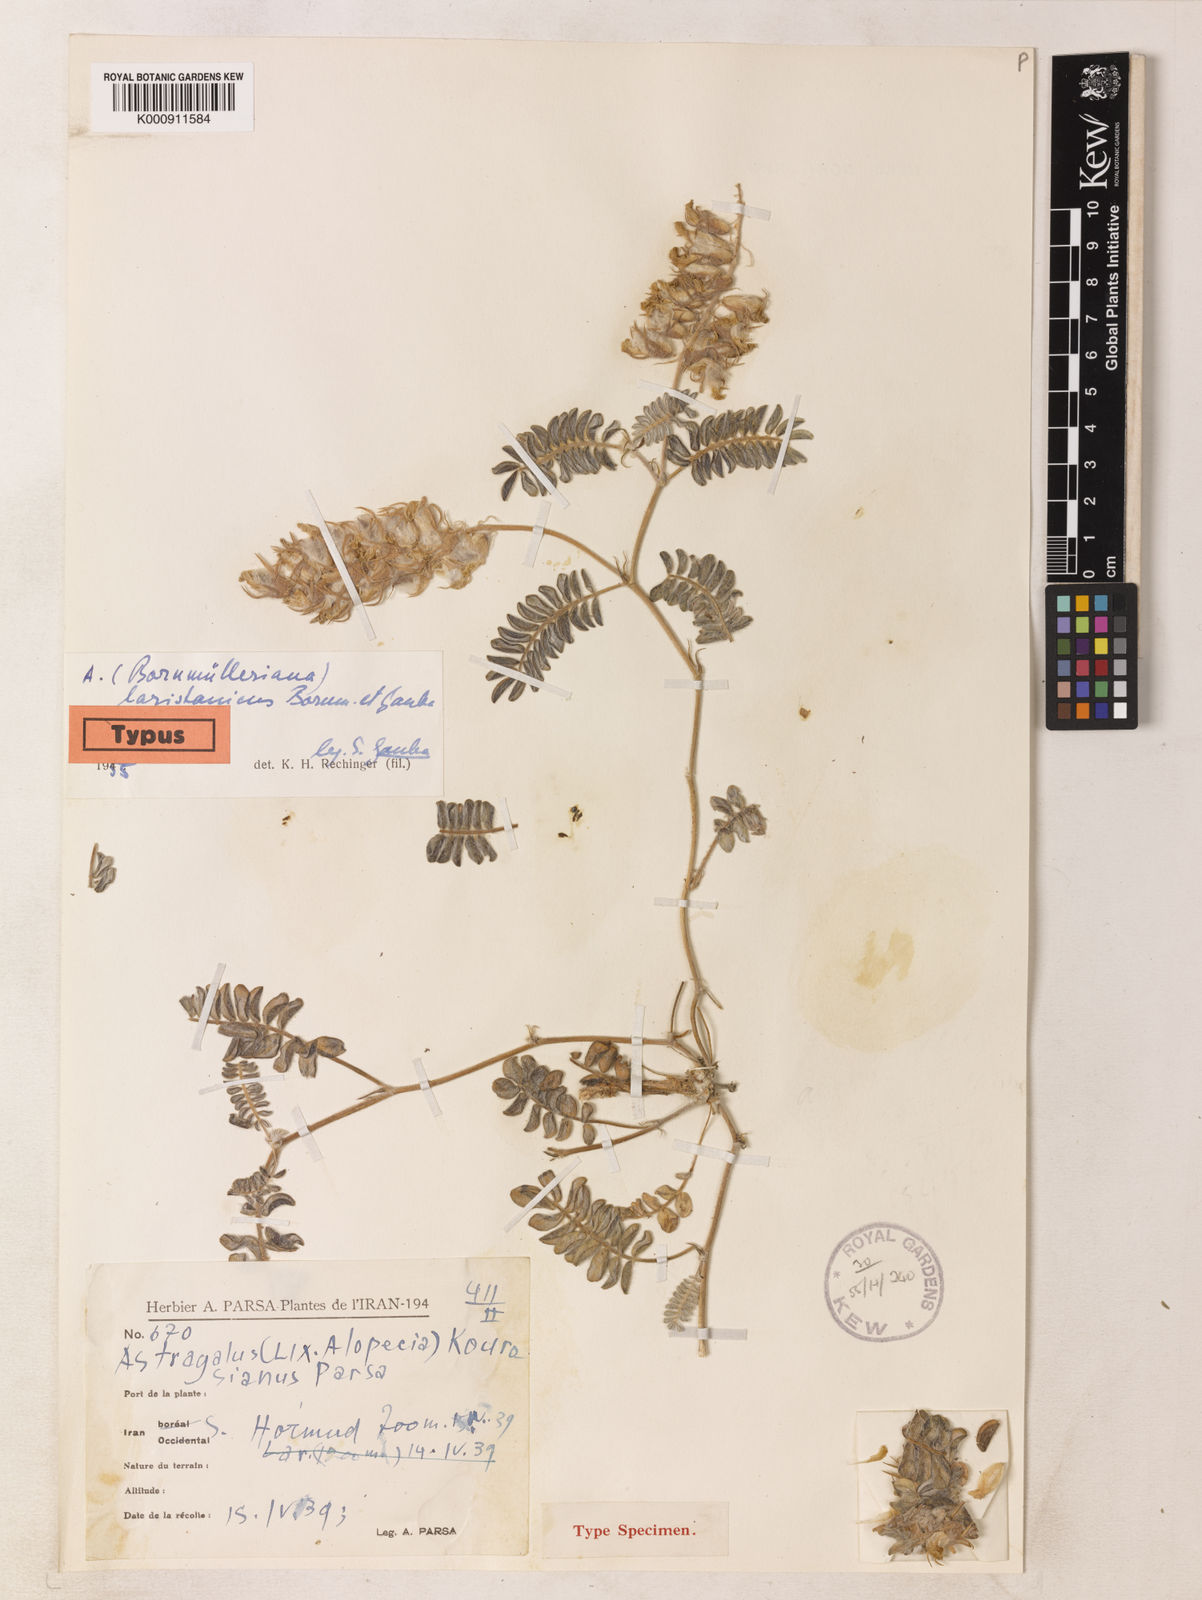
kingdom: Plantae
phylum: Tracheophyta
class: Magnoliopsida
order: Fabales
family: Fabaceae
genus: Astragalus
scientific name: Astragalus laristanicus
